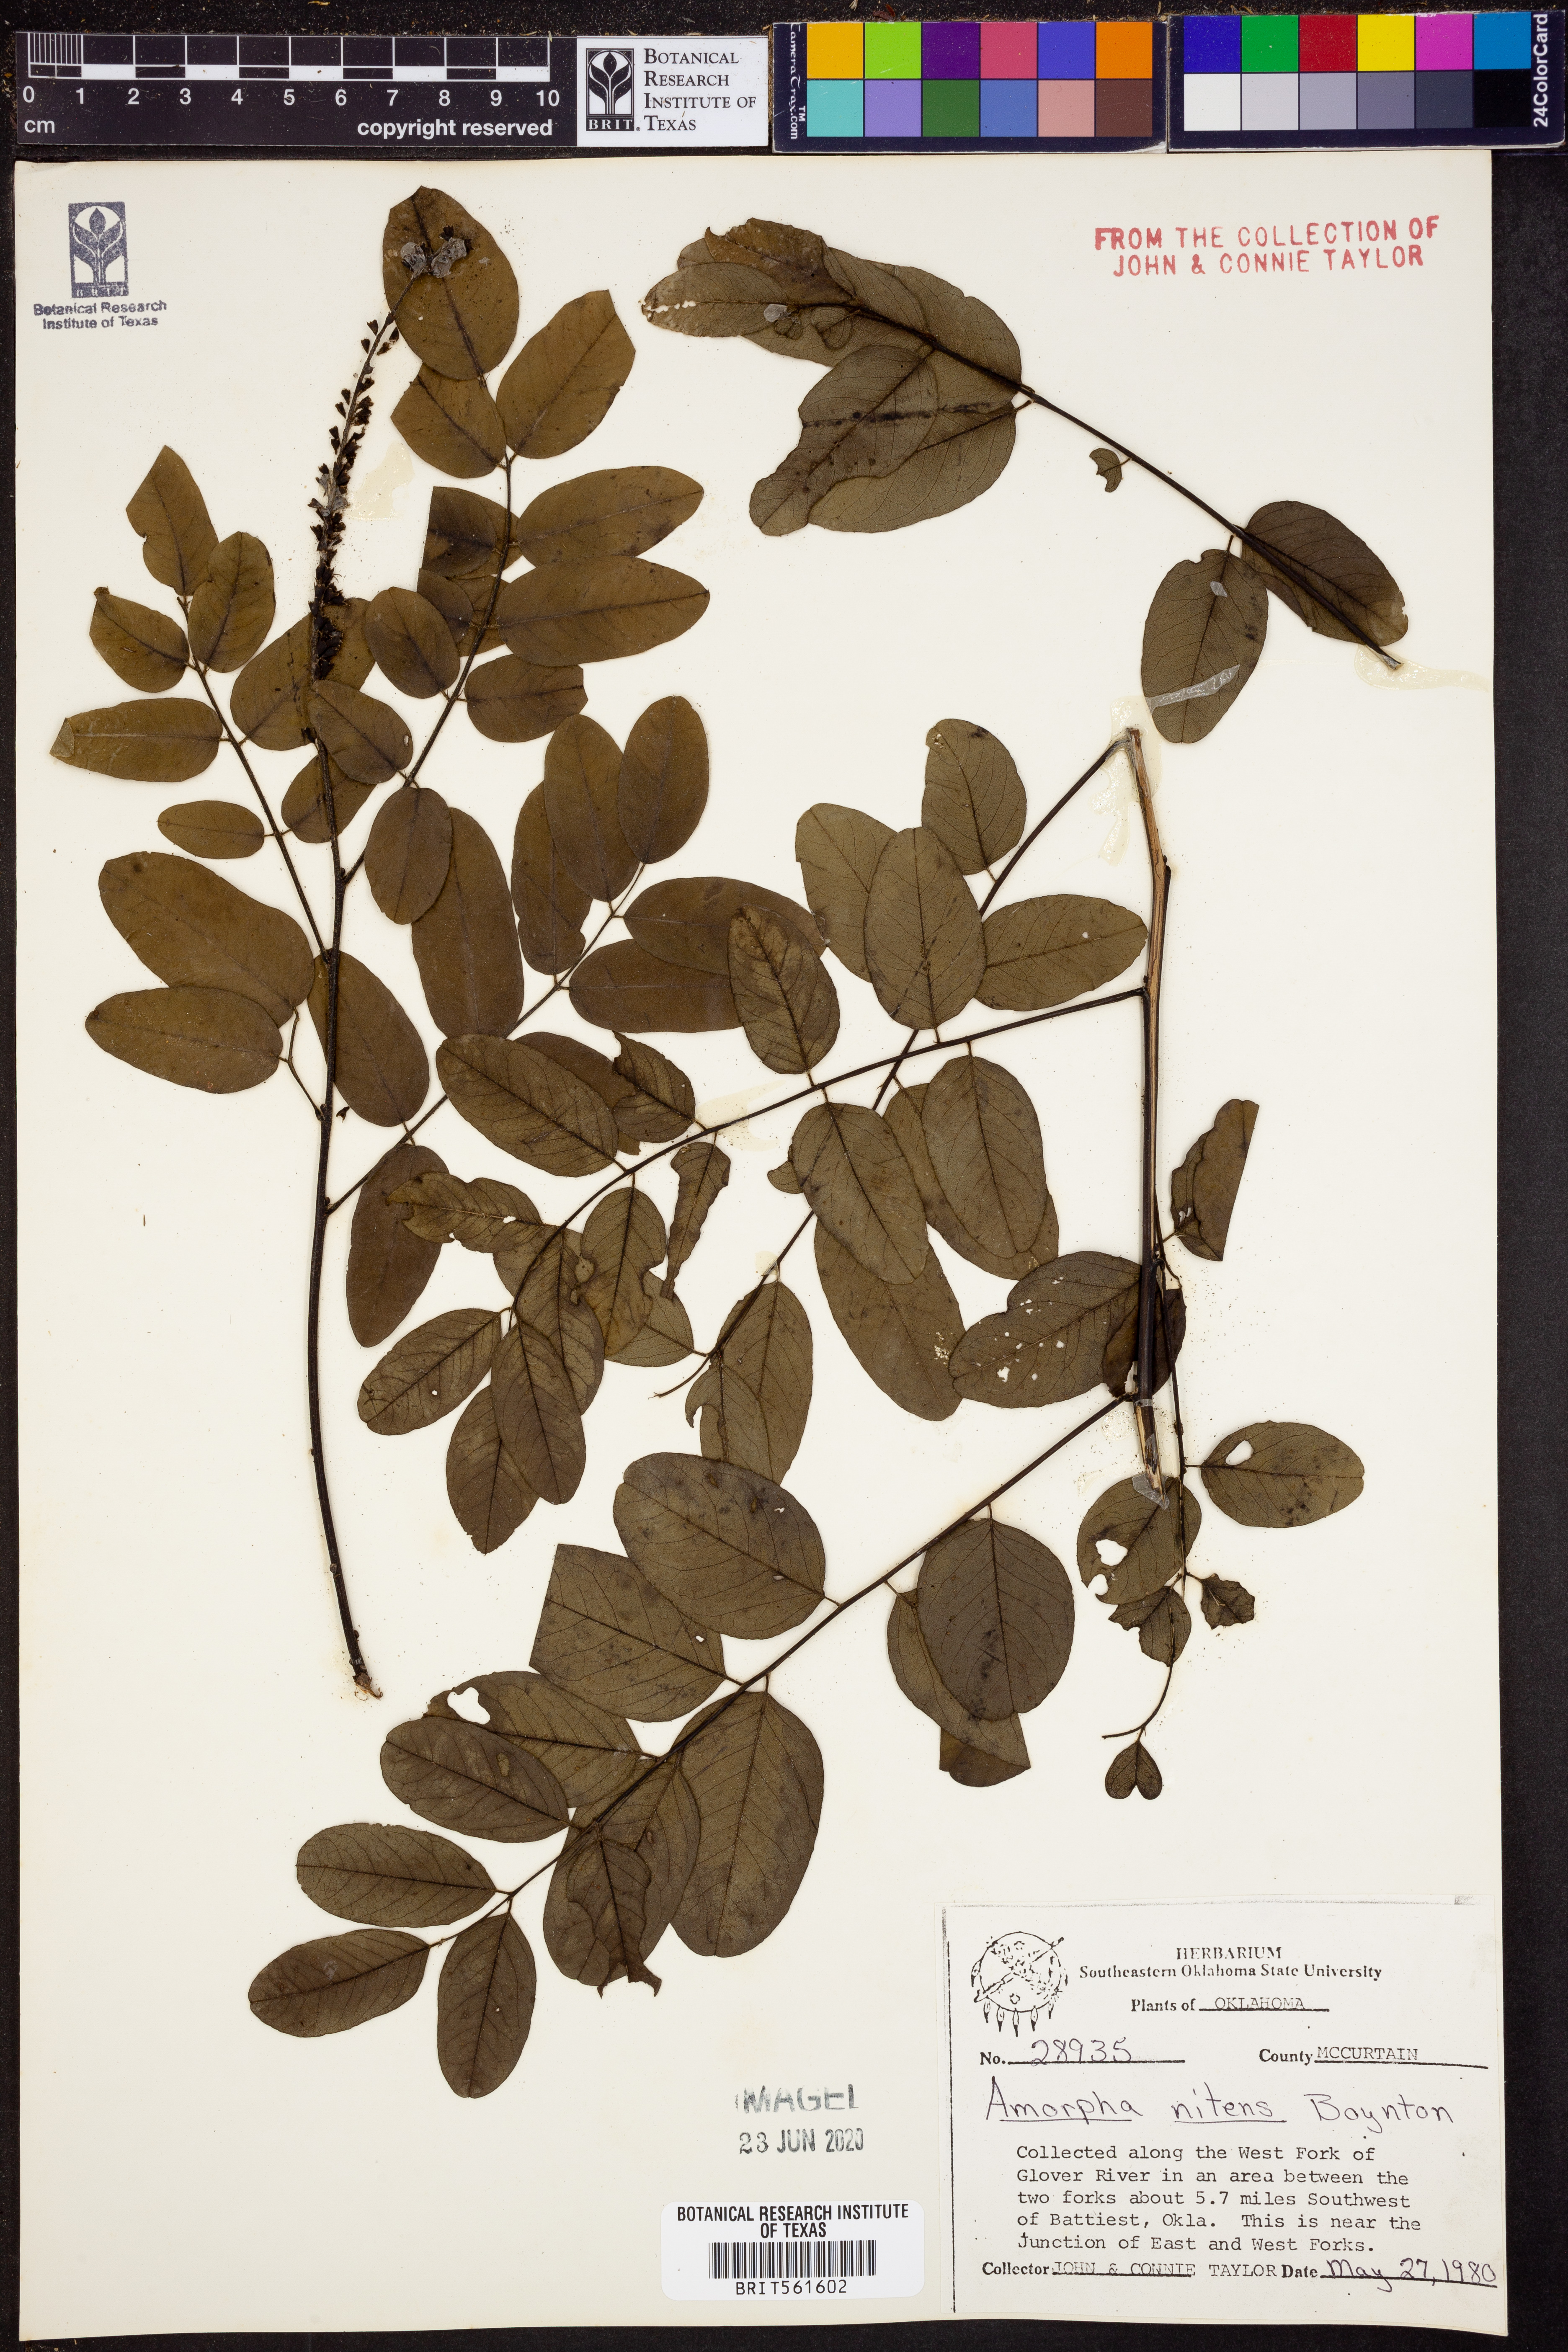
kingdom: Plantae
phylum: Tracheophyta
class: Magnoliopsida
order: Fabales
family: Fabaceae
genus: Amorpha
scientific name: Amorpha nitens
